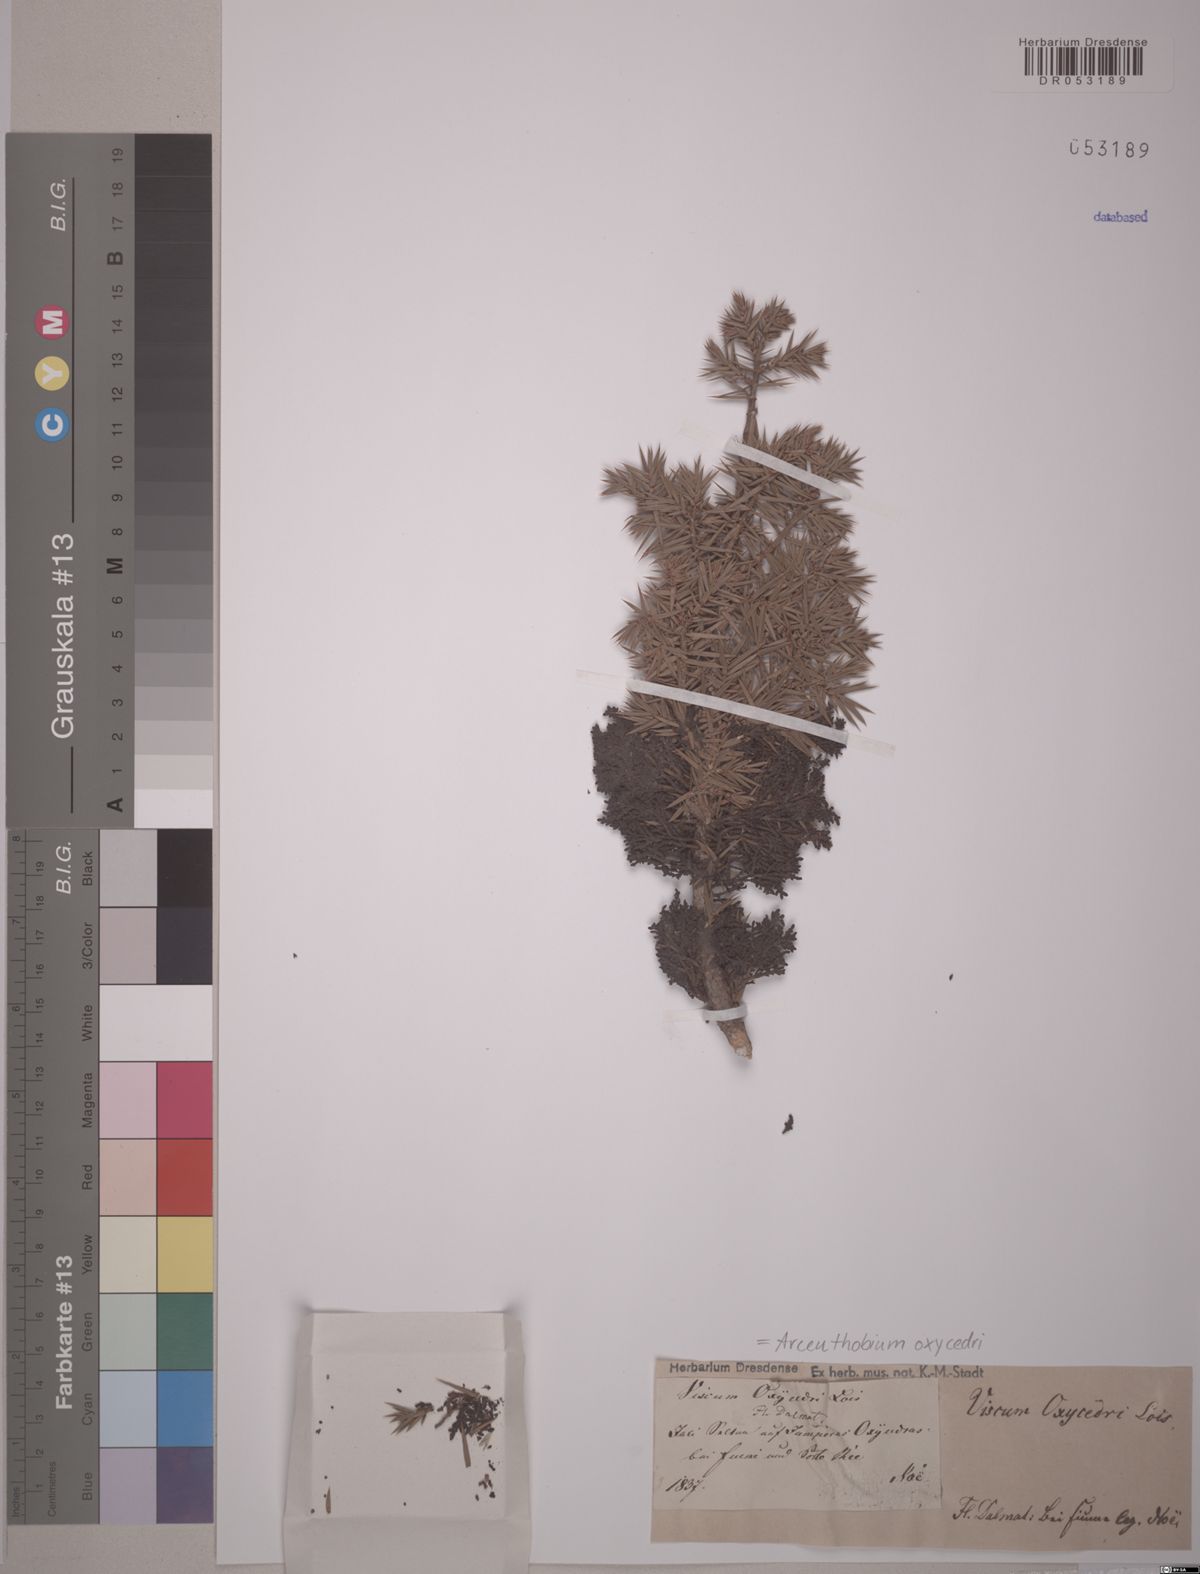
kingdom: Plantae
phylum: Tracheophyta
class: Magnoliopsida
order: Santalales
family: Viscaceae
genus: Arceuthobium
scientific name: Arceuthobium oxycedri
